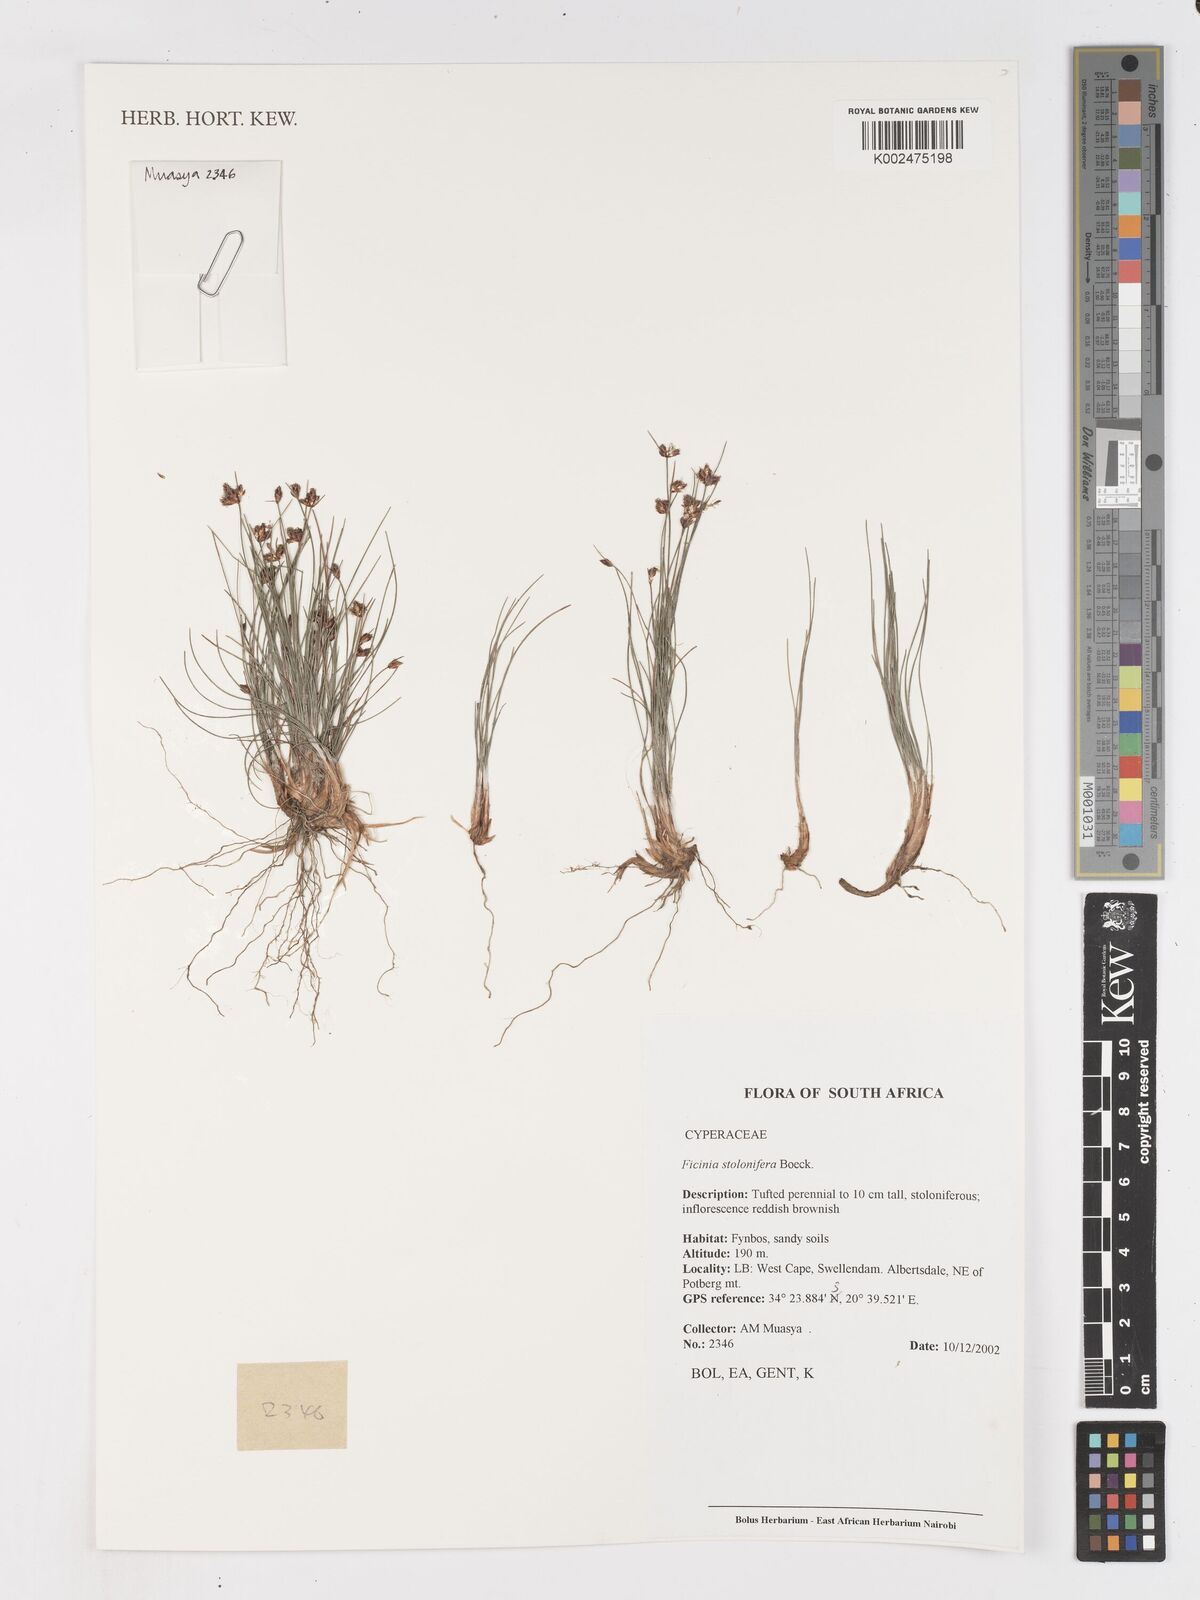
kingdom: Plantae
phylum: Tracheophyta
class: Liliopsida
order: Poales
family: Cyperaceae
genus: Ficinia
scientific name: Ficinia stolonifera
